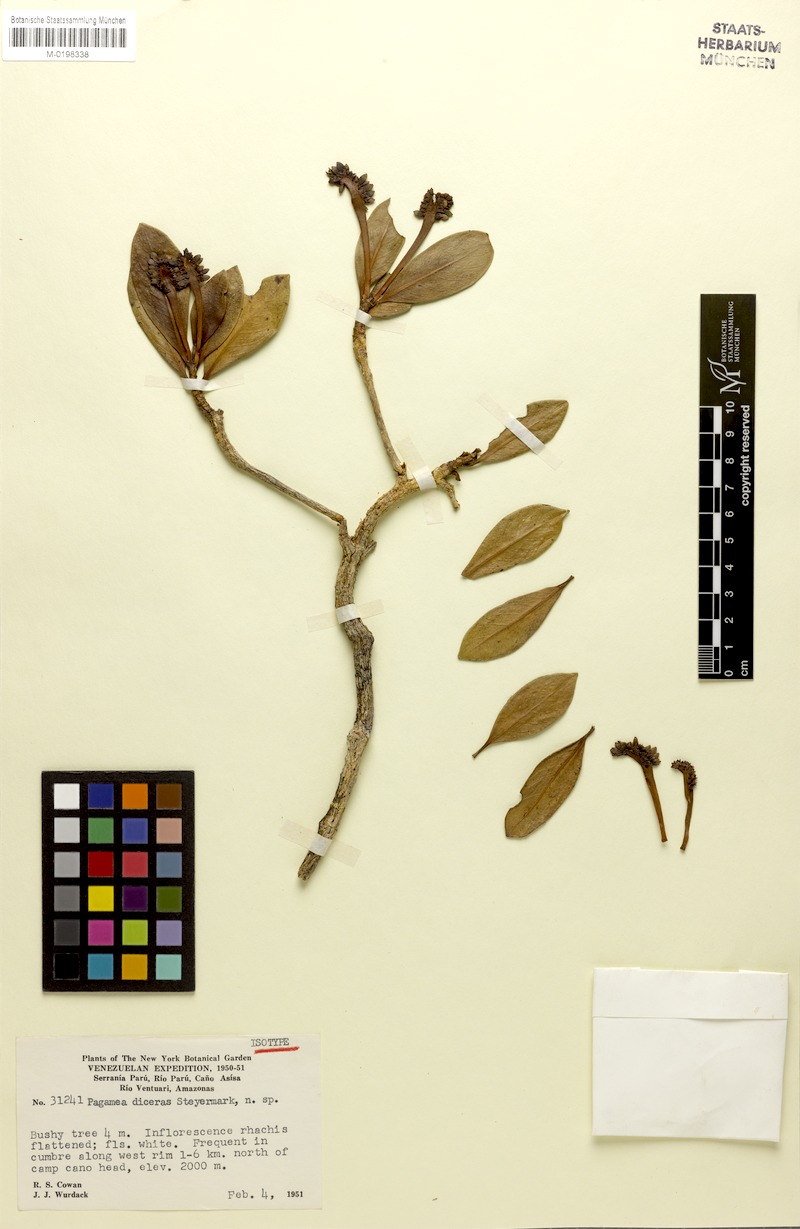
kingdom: Plantae
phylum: Tracheophyta
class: Magnoliopsida
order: Gentianales
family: Rubiaceae
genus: Pagamea
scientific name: Pagamea diceras
